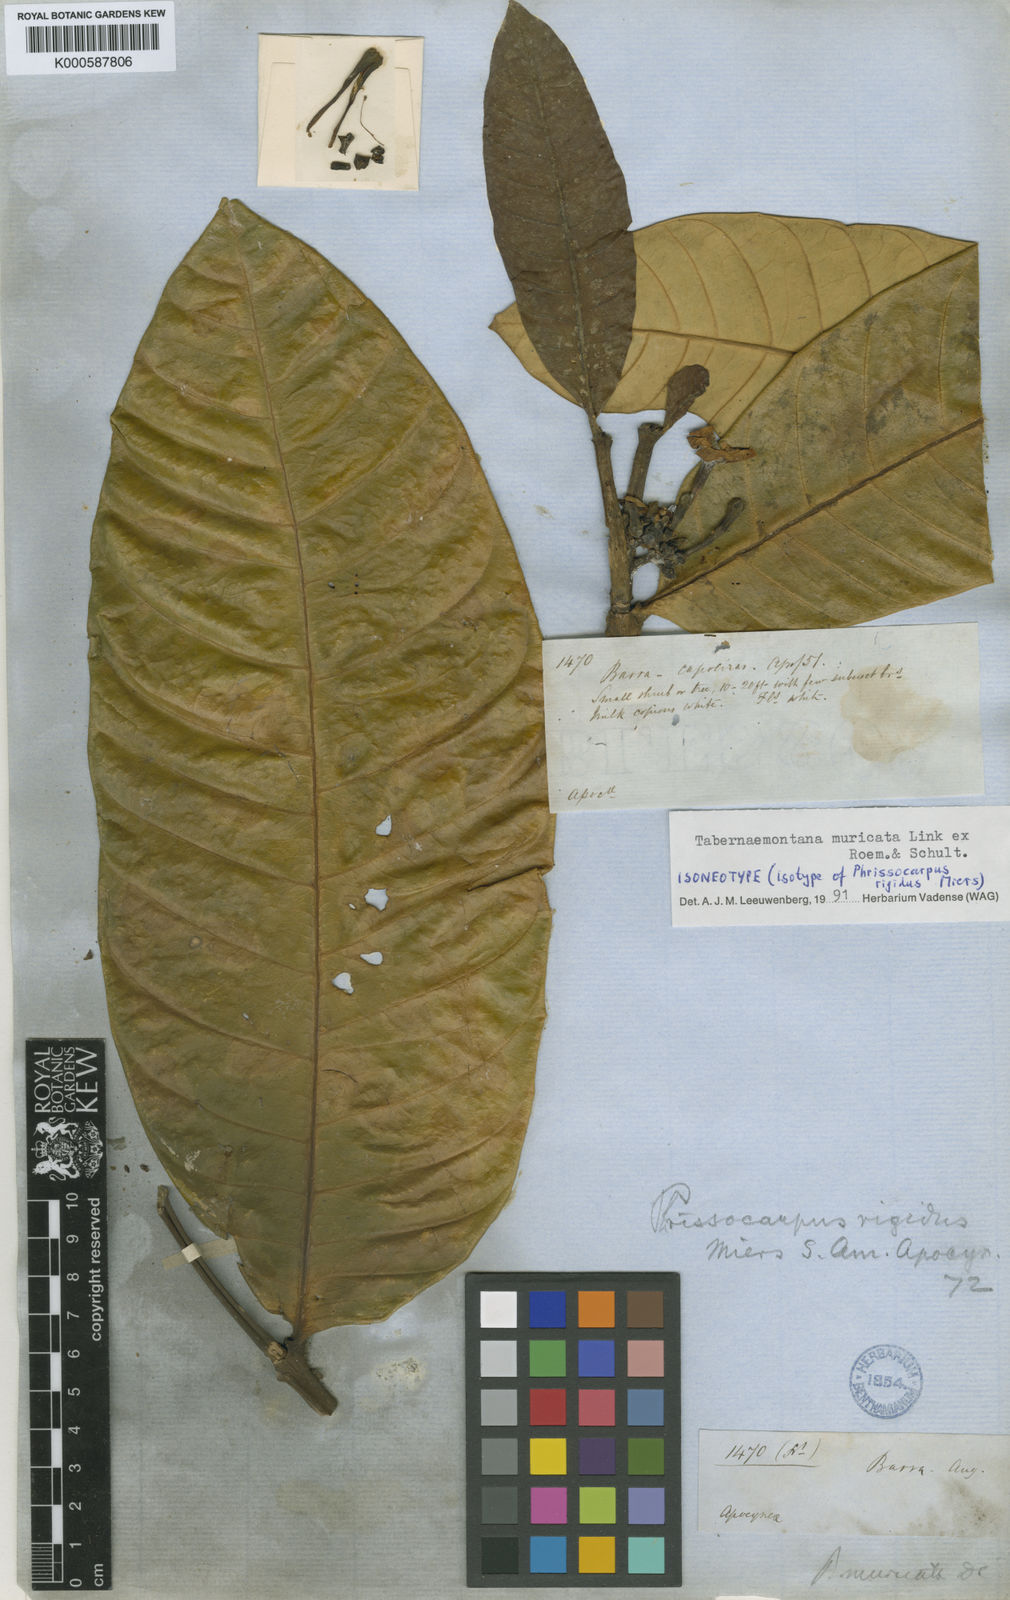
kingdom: Plantae
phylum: Tracheophyta
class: Magnoliopsida
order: Gentianales
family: Apocynaceae
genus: Tabernaemontana
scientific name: Tabernaemontana muricata
